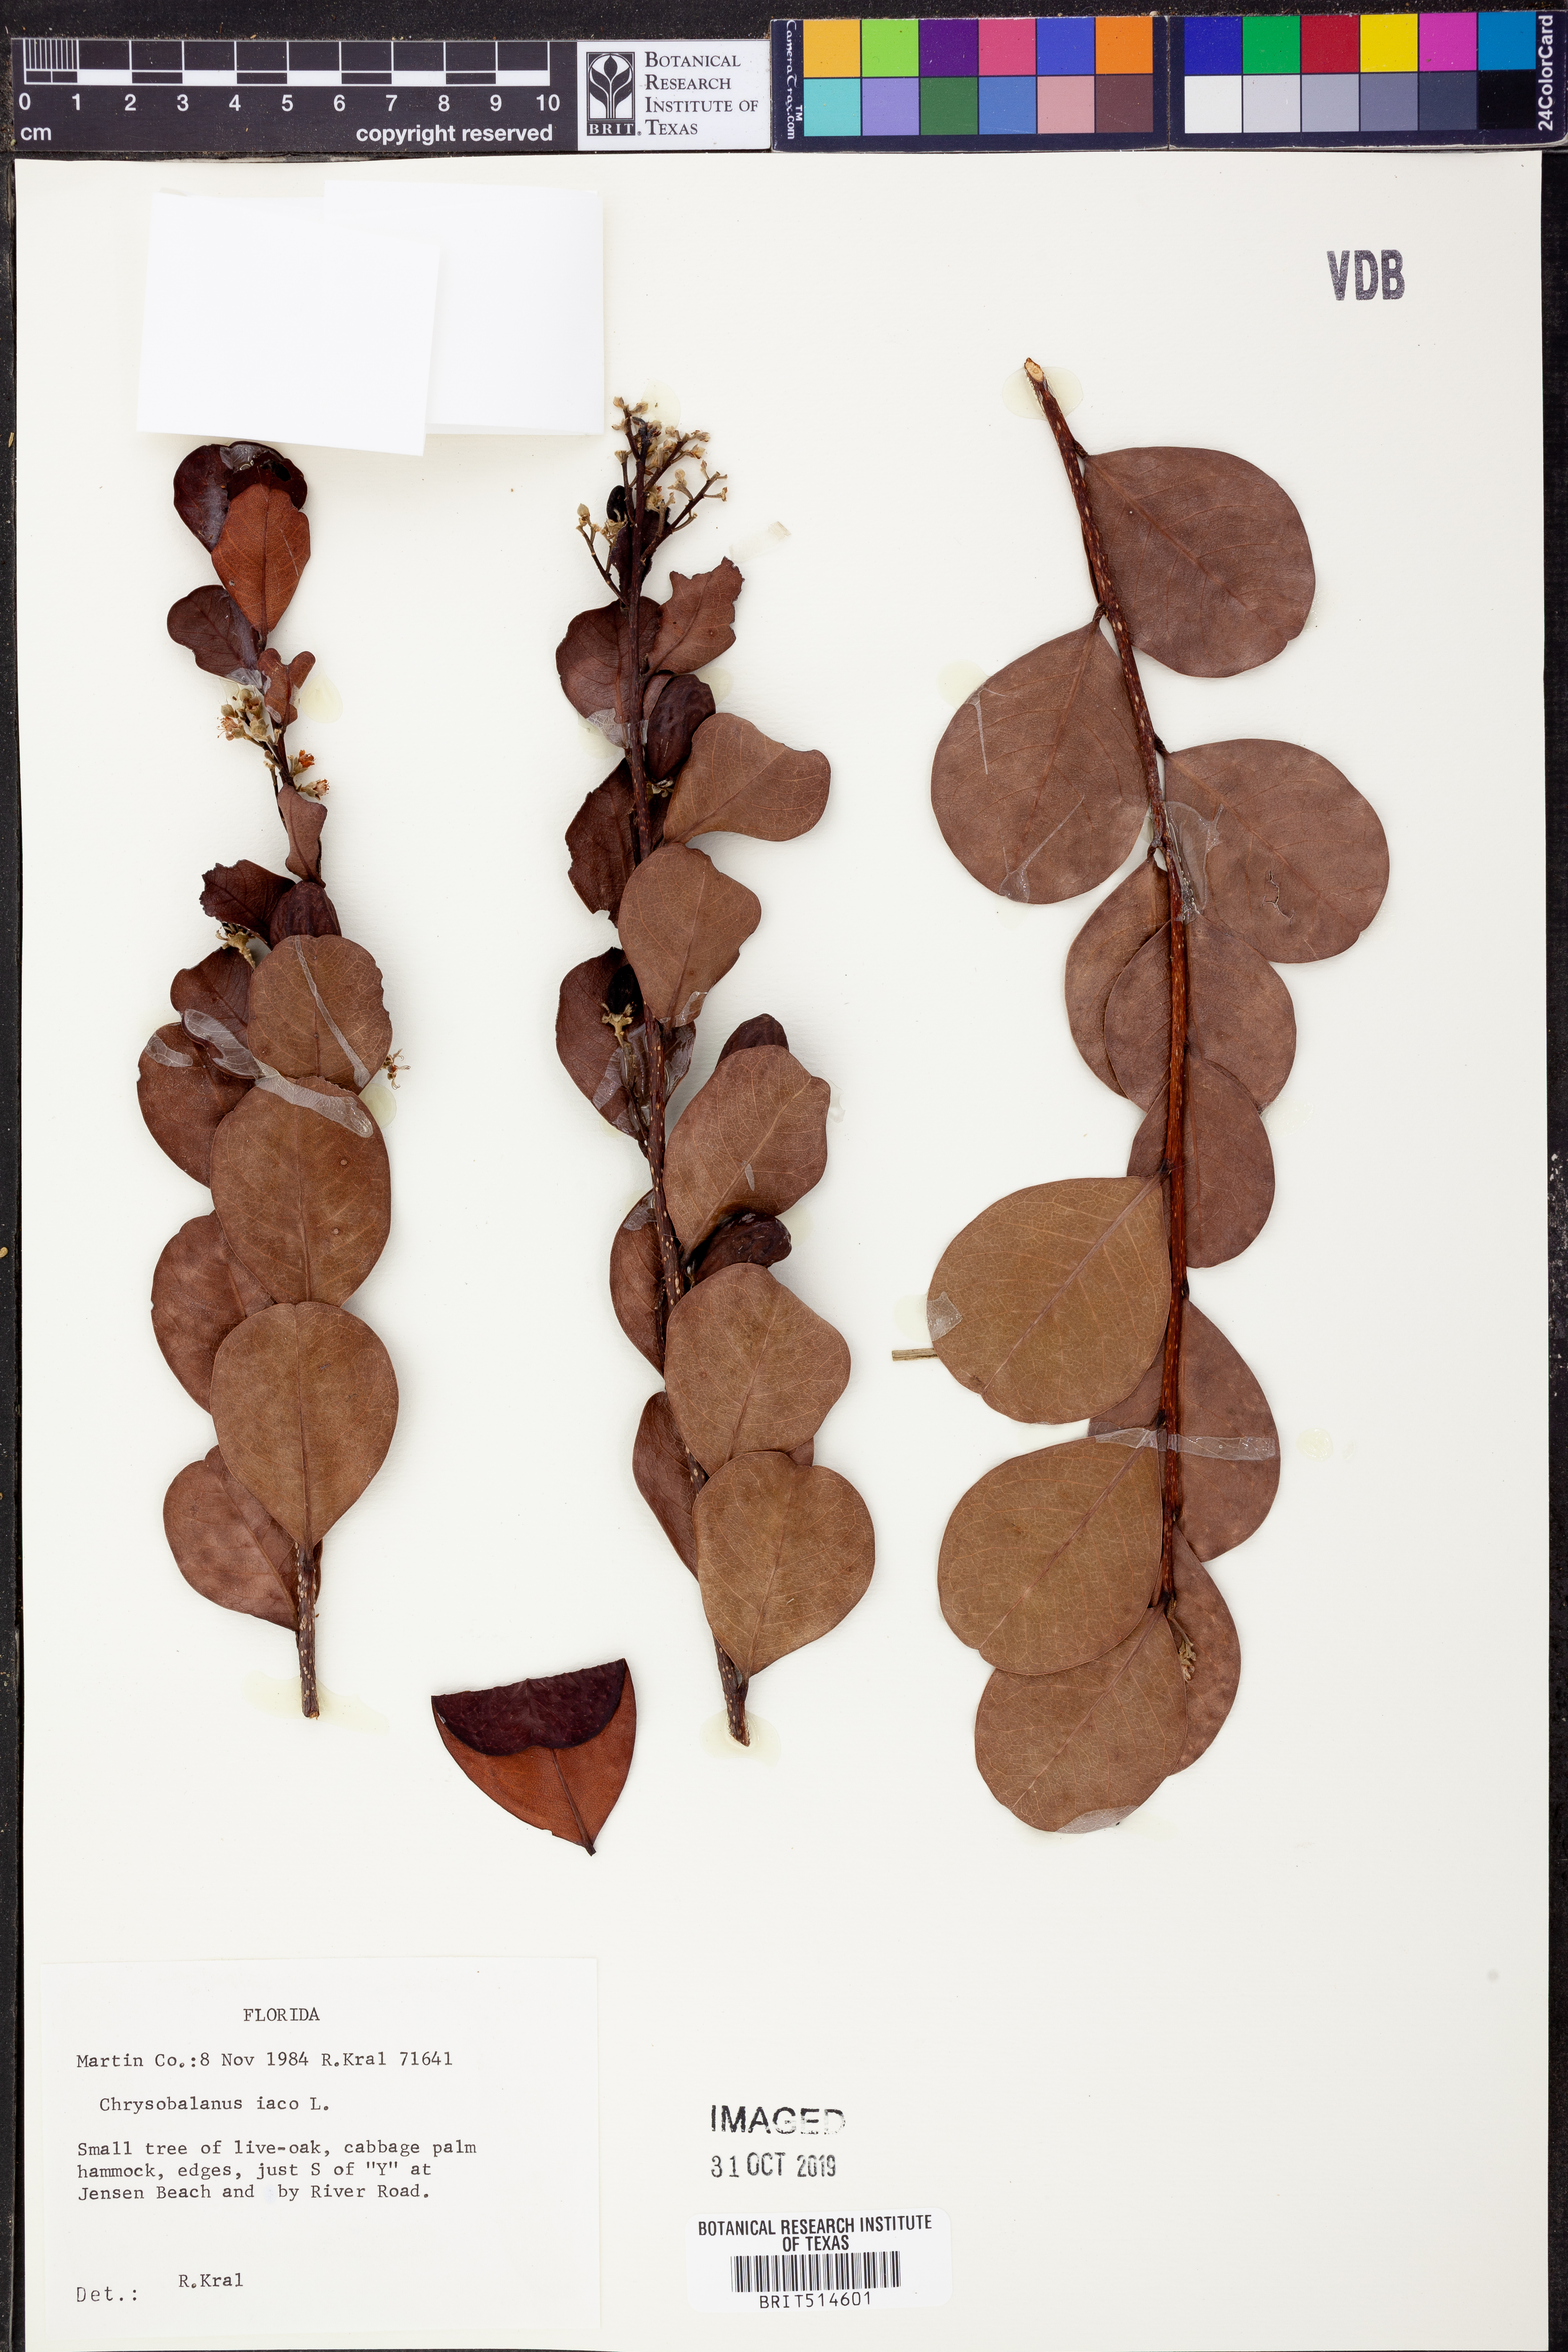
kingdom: Plantae
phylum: Tracheophyta
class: Magnoliopsida
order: Malpighiales
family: Chrysobalanaceae
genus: Chrysobalanus
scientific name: Chrysobalanus icaco
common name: Coco plum
